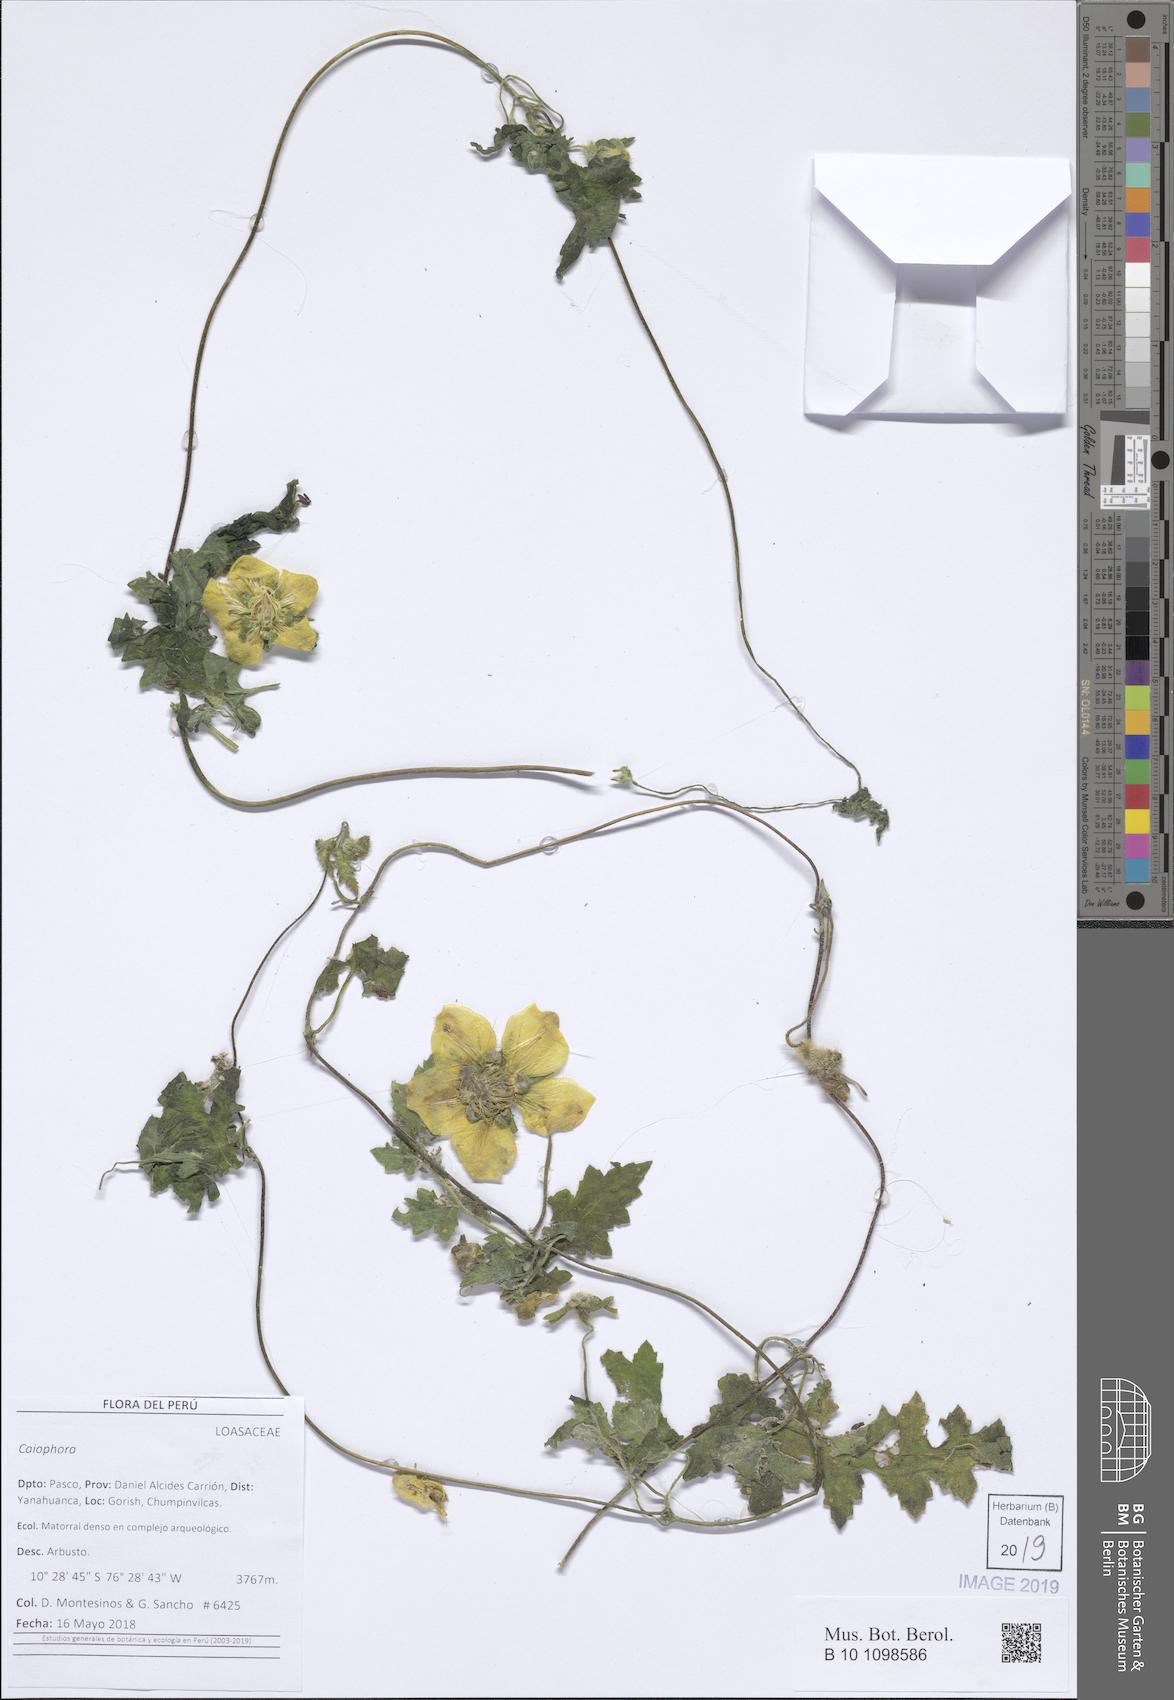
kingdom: Plantae
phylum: Tracheophyta
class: Magnoliopsida
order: Cornales
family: Loasaceae
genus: Caiophora
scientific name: Caiophora
